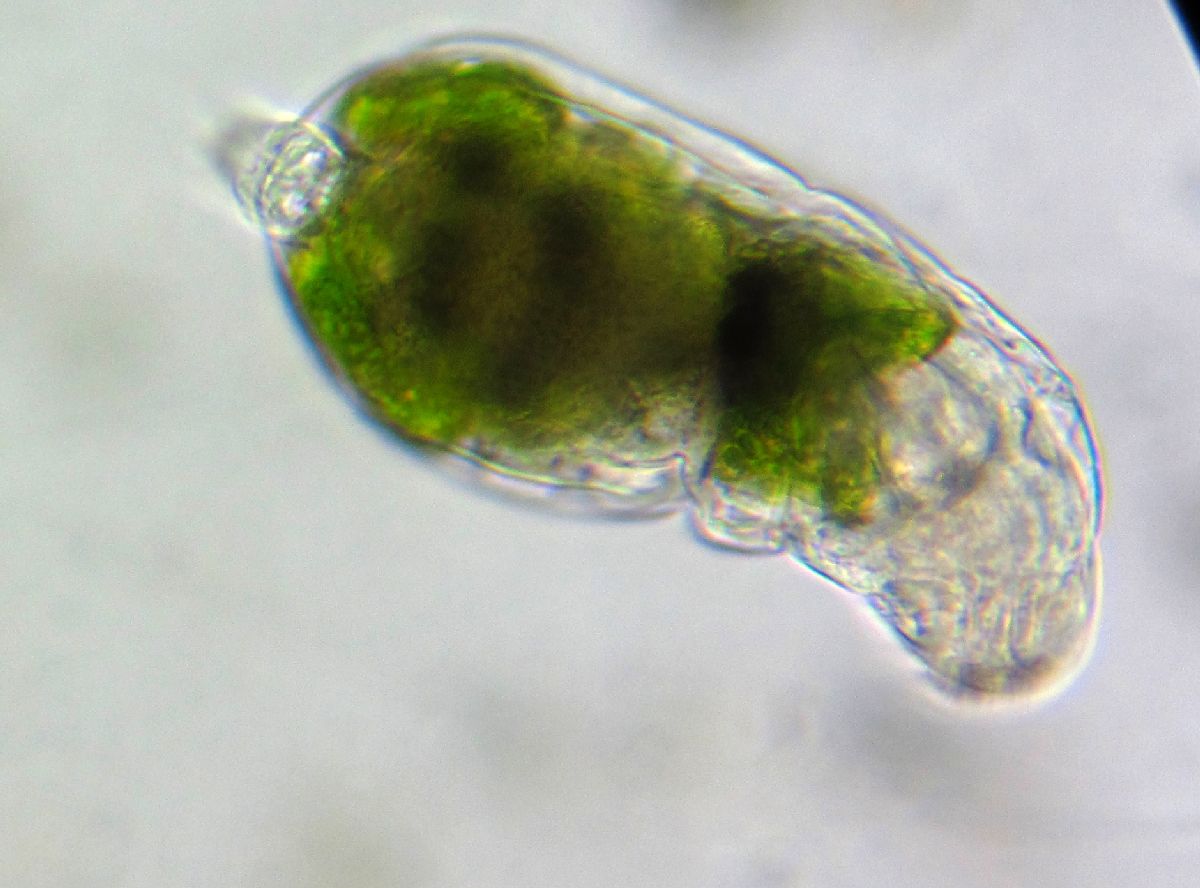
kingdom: Animalia
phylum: Rotifera
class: Eurotatoria
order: Ploima
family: Ituridae
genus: Itura
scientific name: Itura aurita
